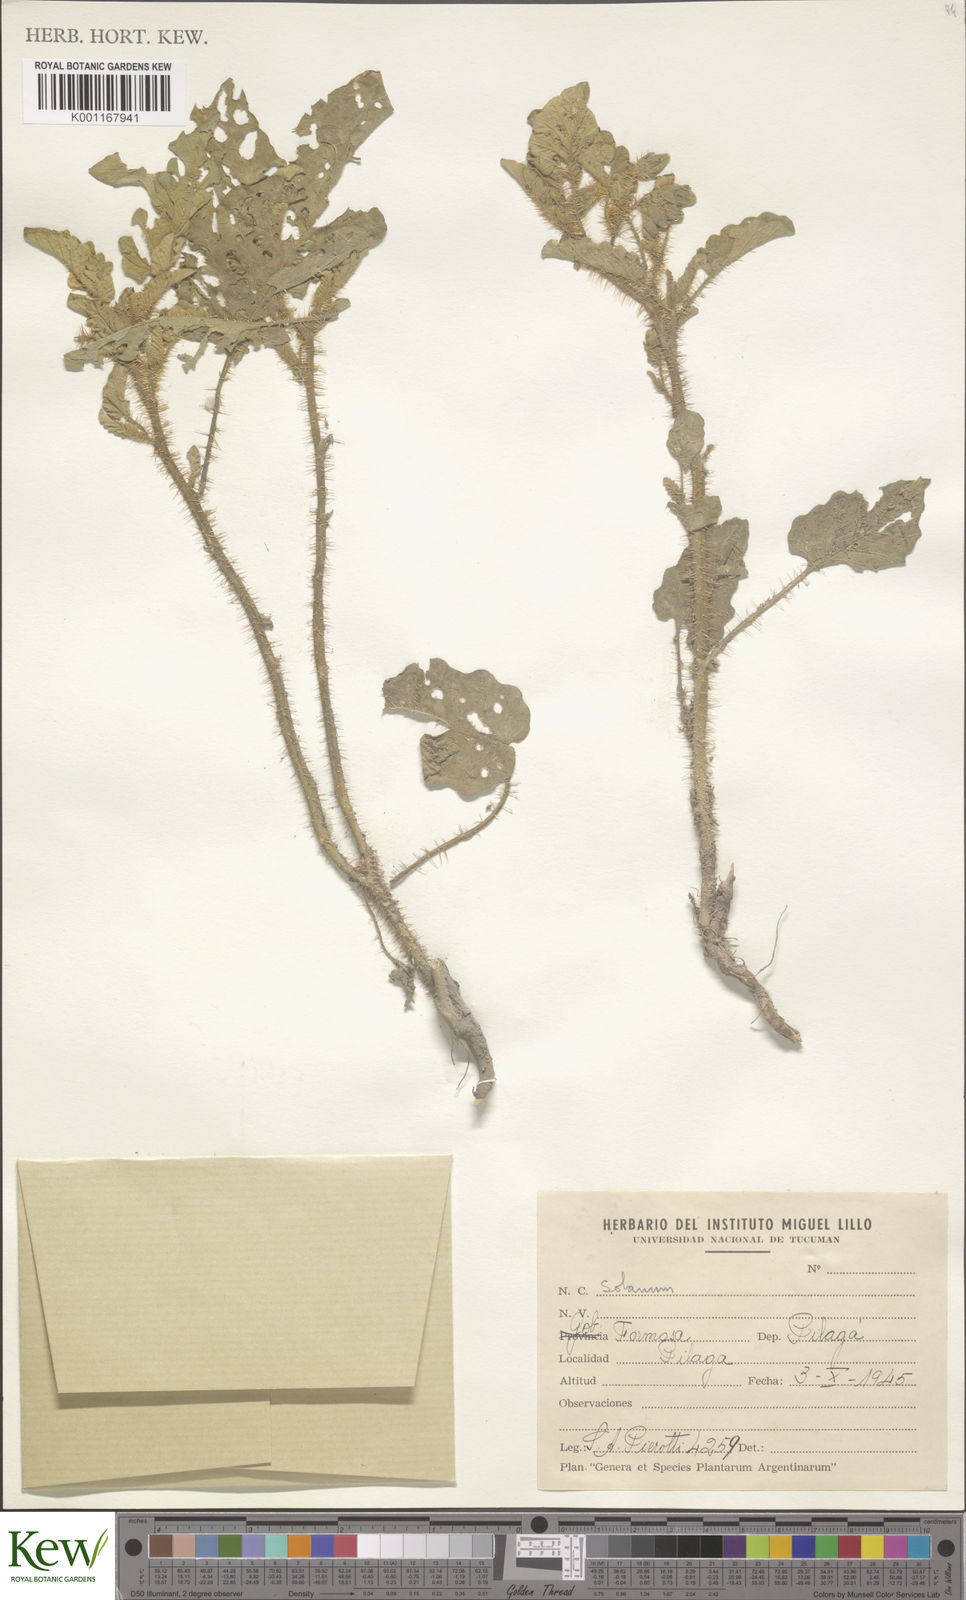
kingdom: Plantae
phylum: Tracheophyta
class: Magnoliopsida
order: Solanales
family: Solanaceae
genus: Solanum
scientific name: Solanum
